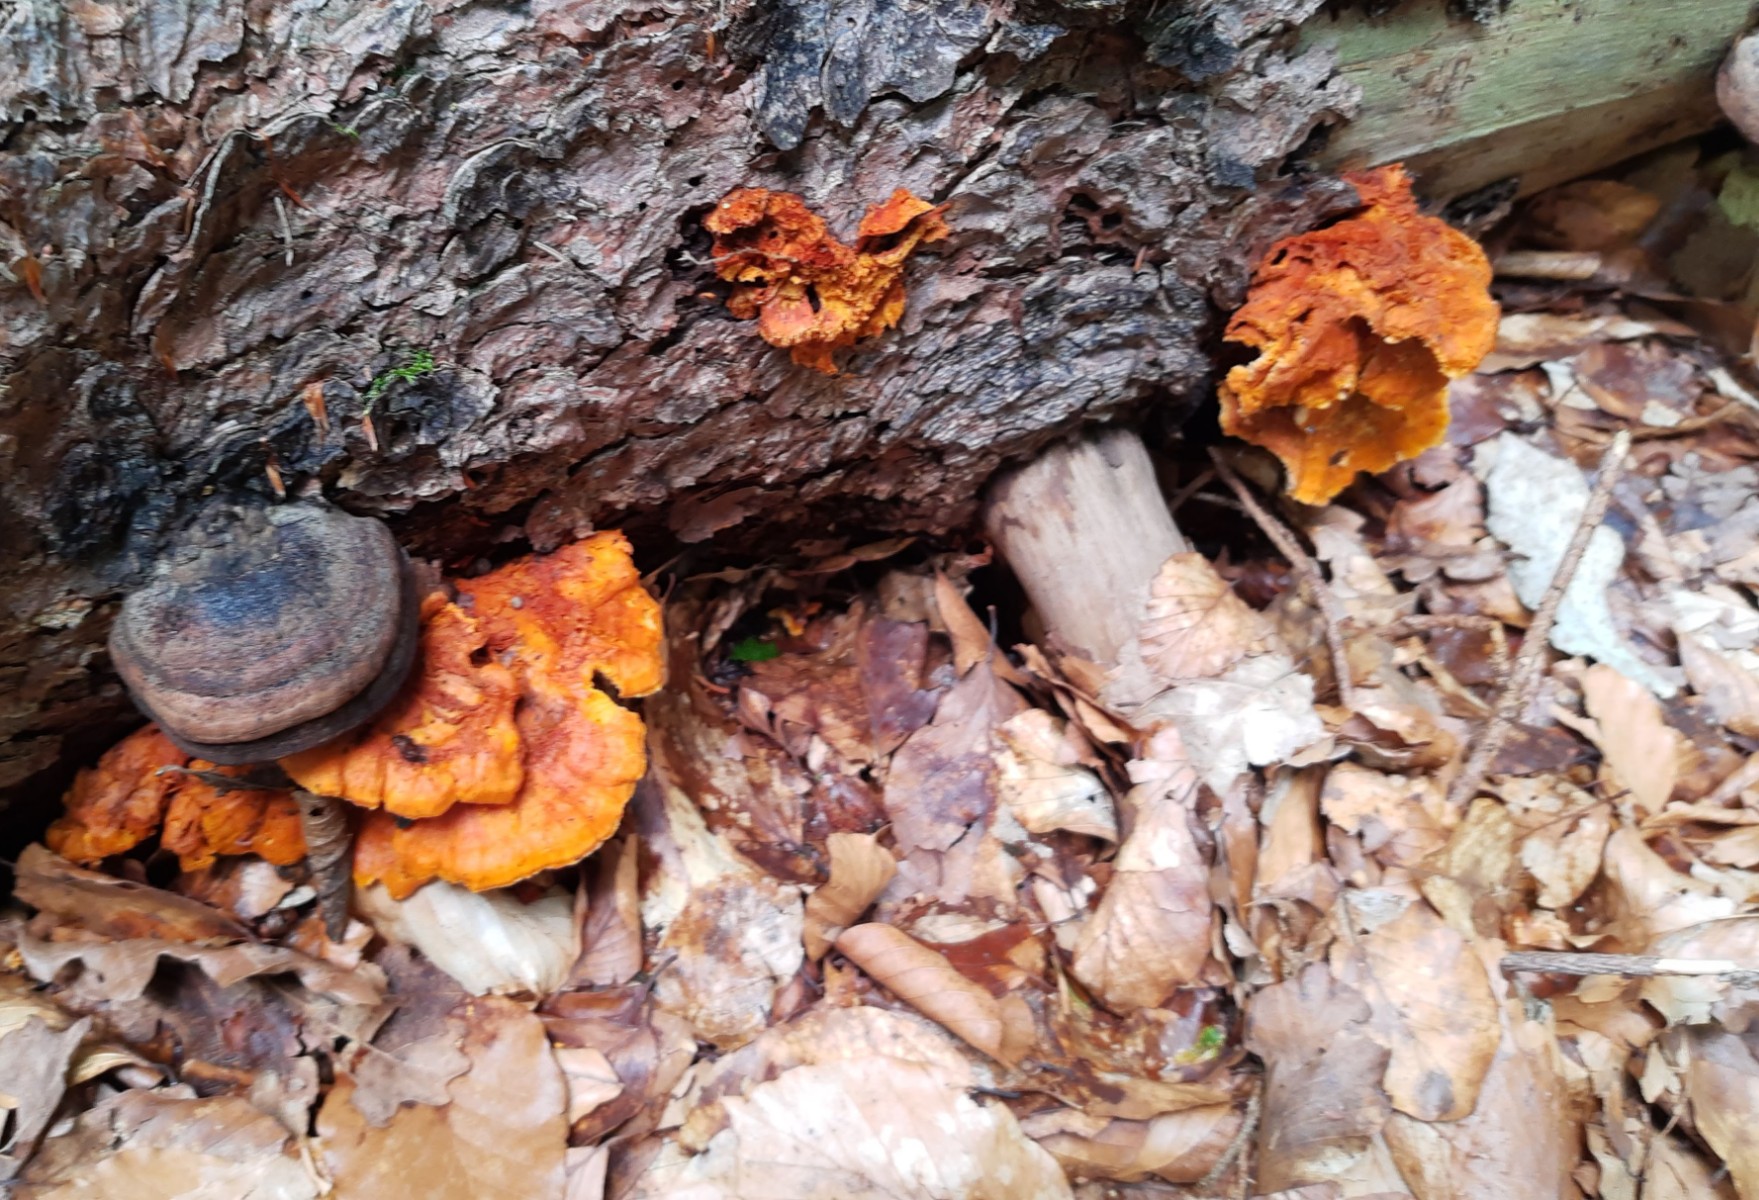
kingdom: Fungi
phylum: Basidiomycota
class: Agaricomycetes
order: Polyporales
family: Pycnoporellaceae
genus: Pycnoporellus
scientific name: Pycnoporellus fulgens
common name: flammeporesvamp
